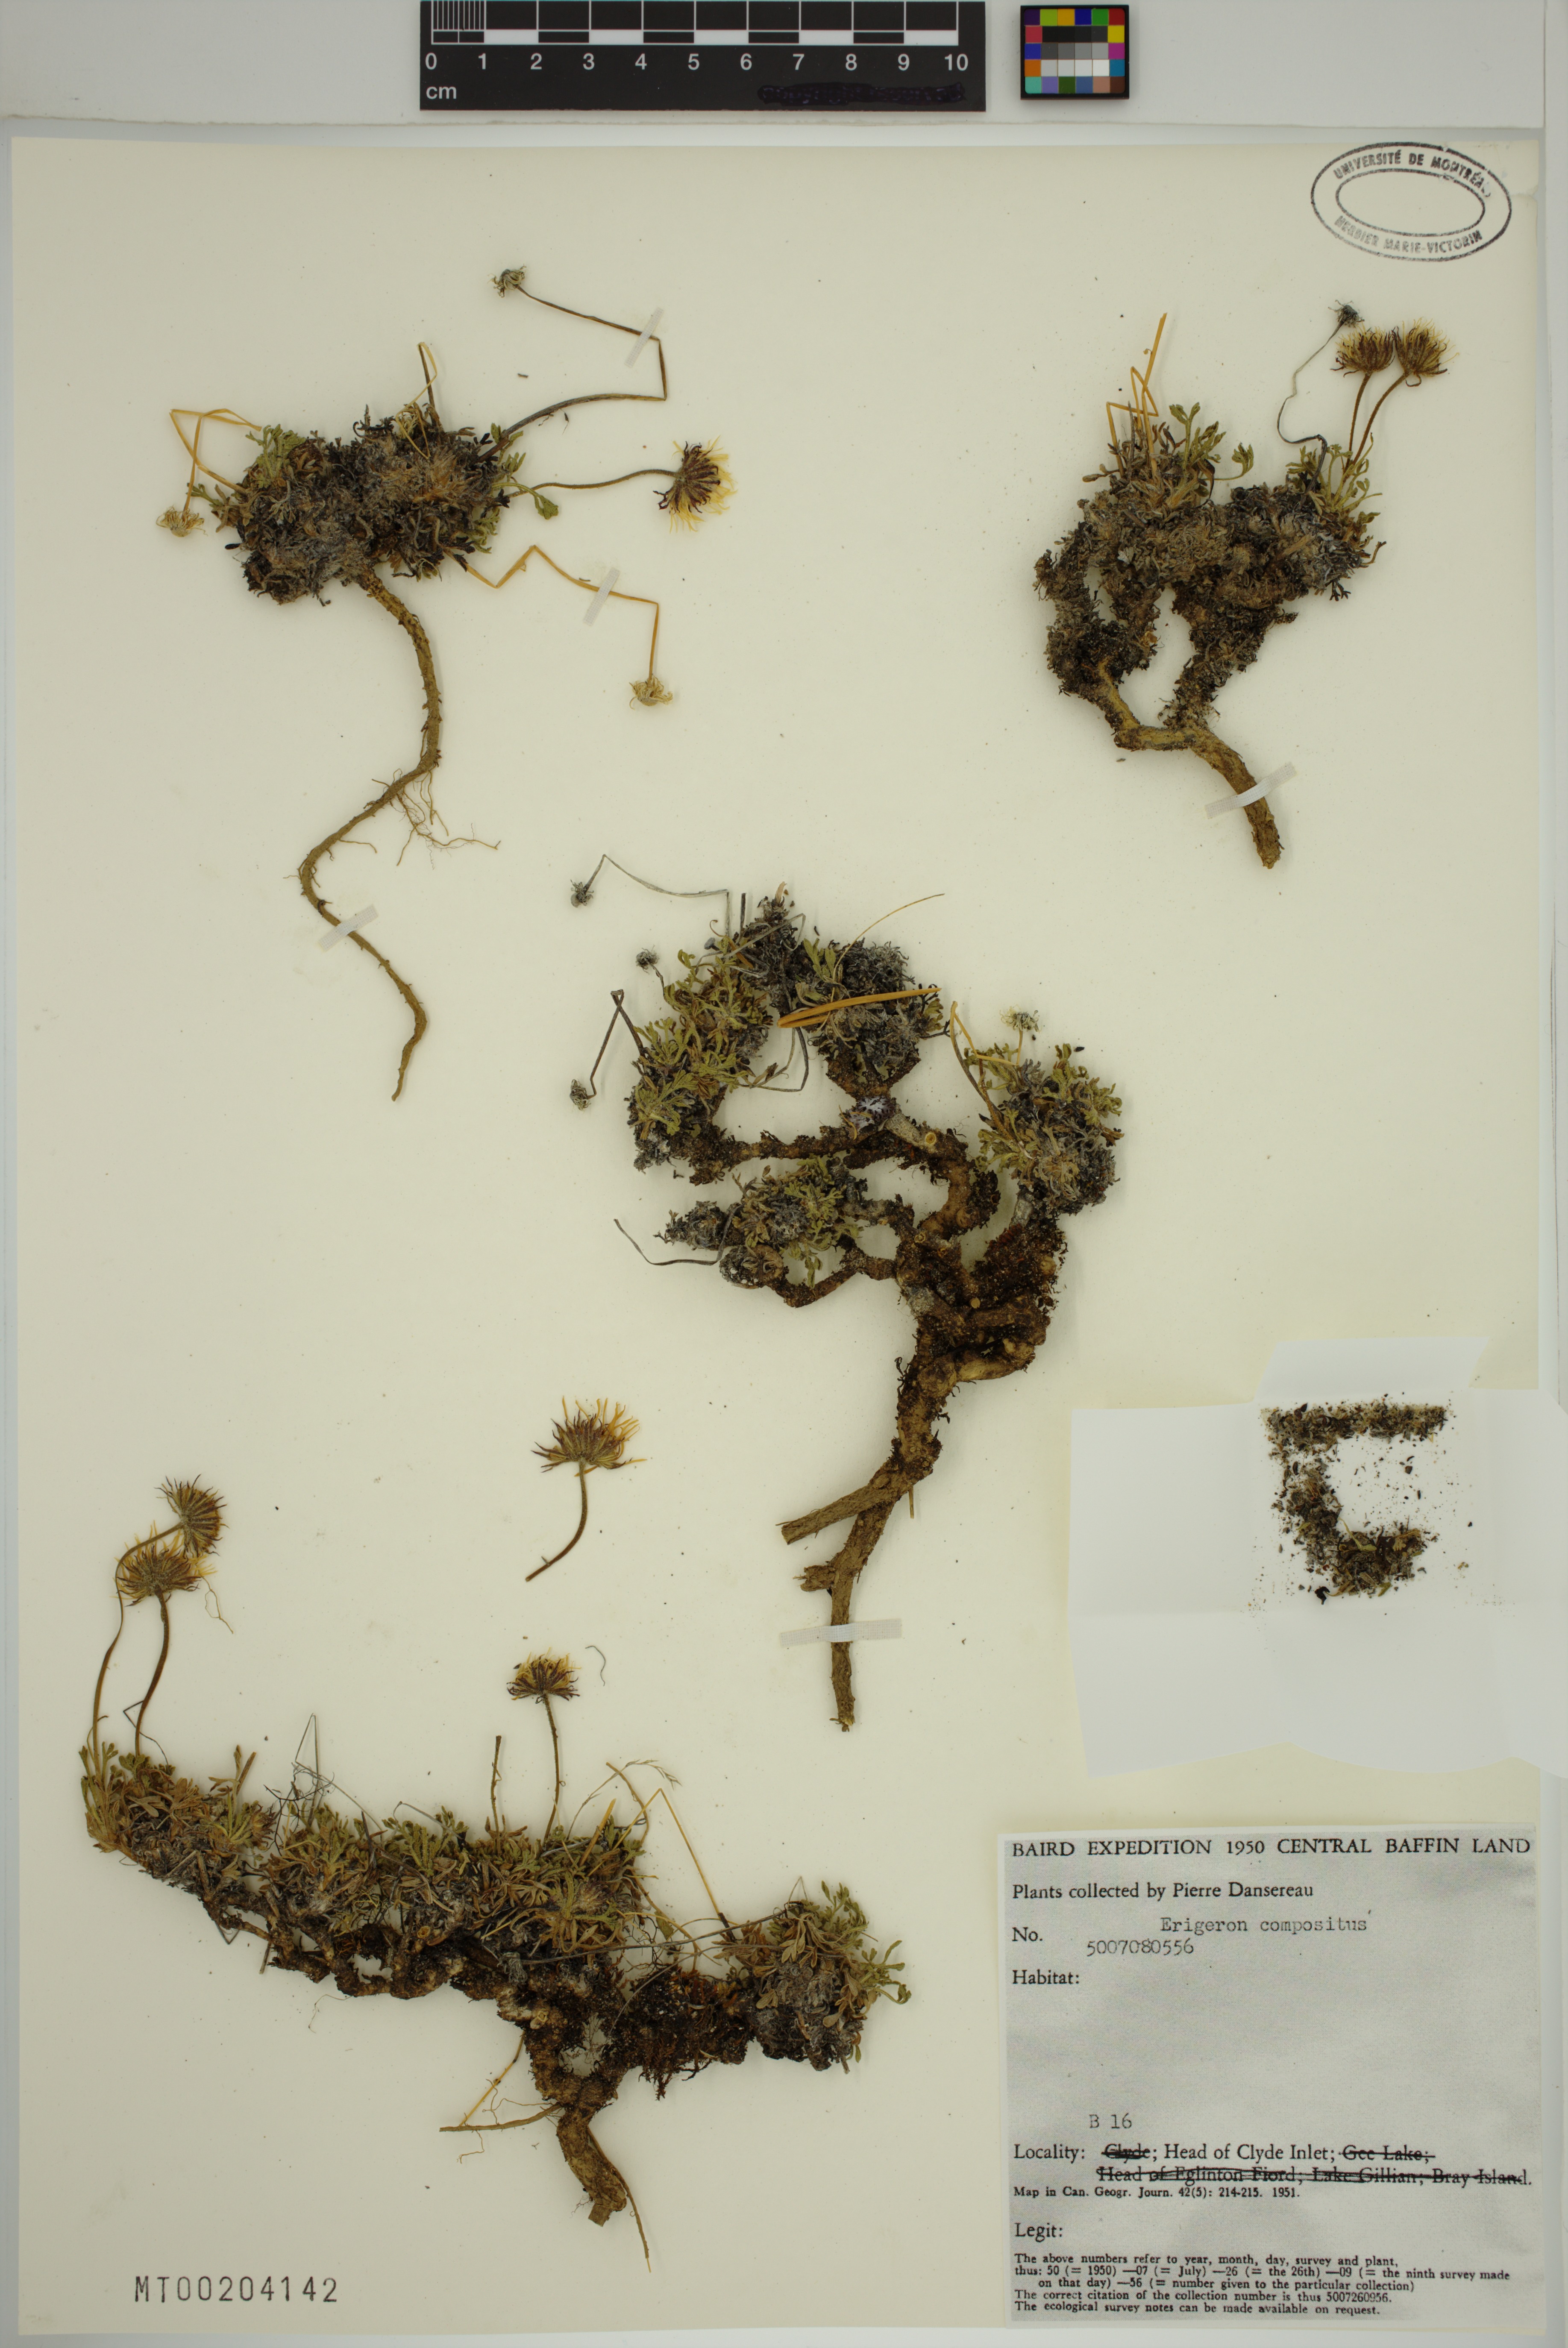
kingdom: Plantae
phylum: Tracheophyta
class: Magnoliopsida
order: Asterales
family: Asteraceae
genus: Erigeron
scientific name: Erigeron compositus
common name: Dwarf mountain fleabane
